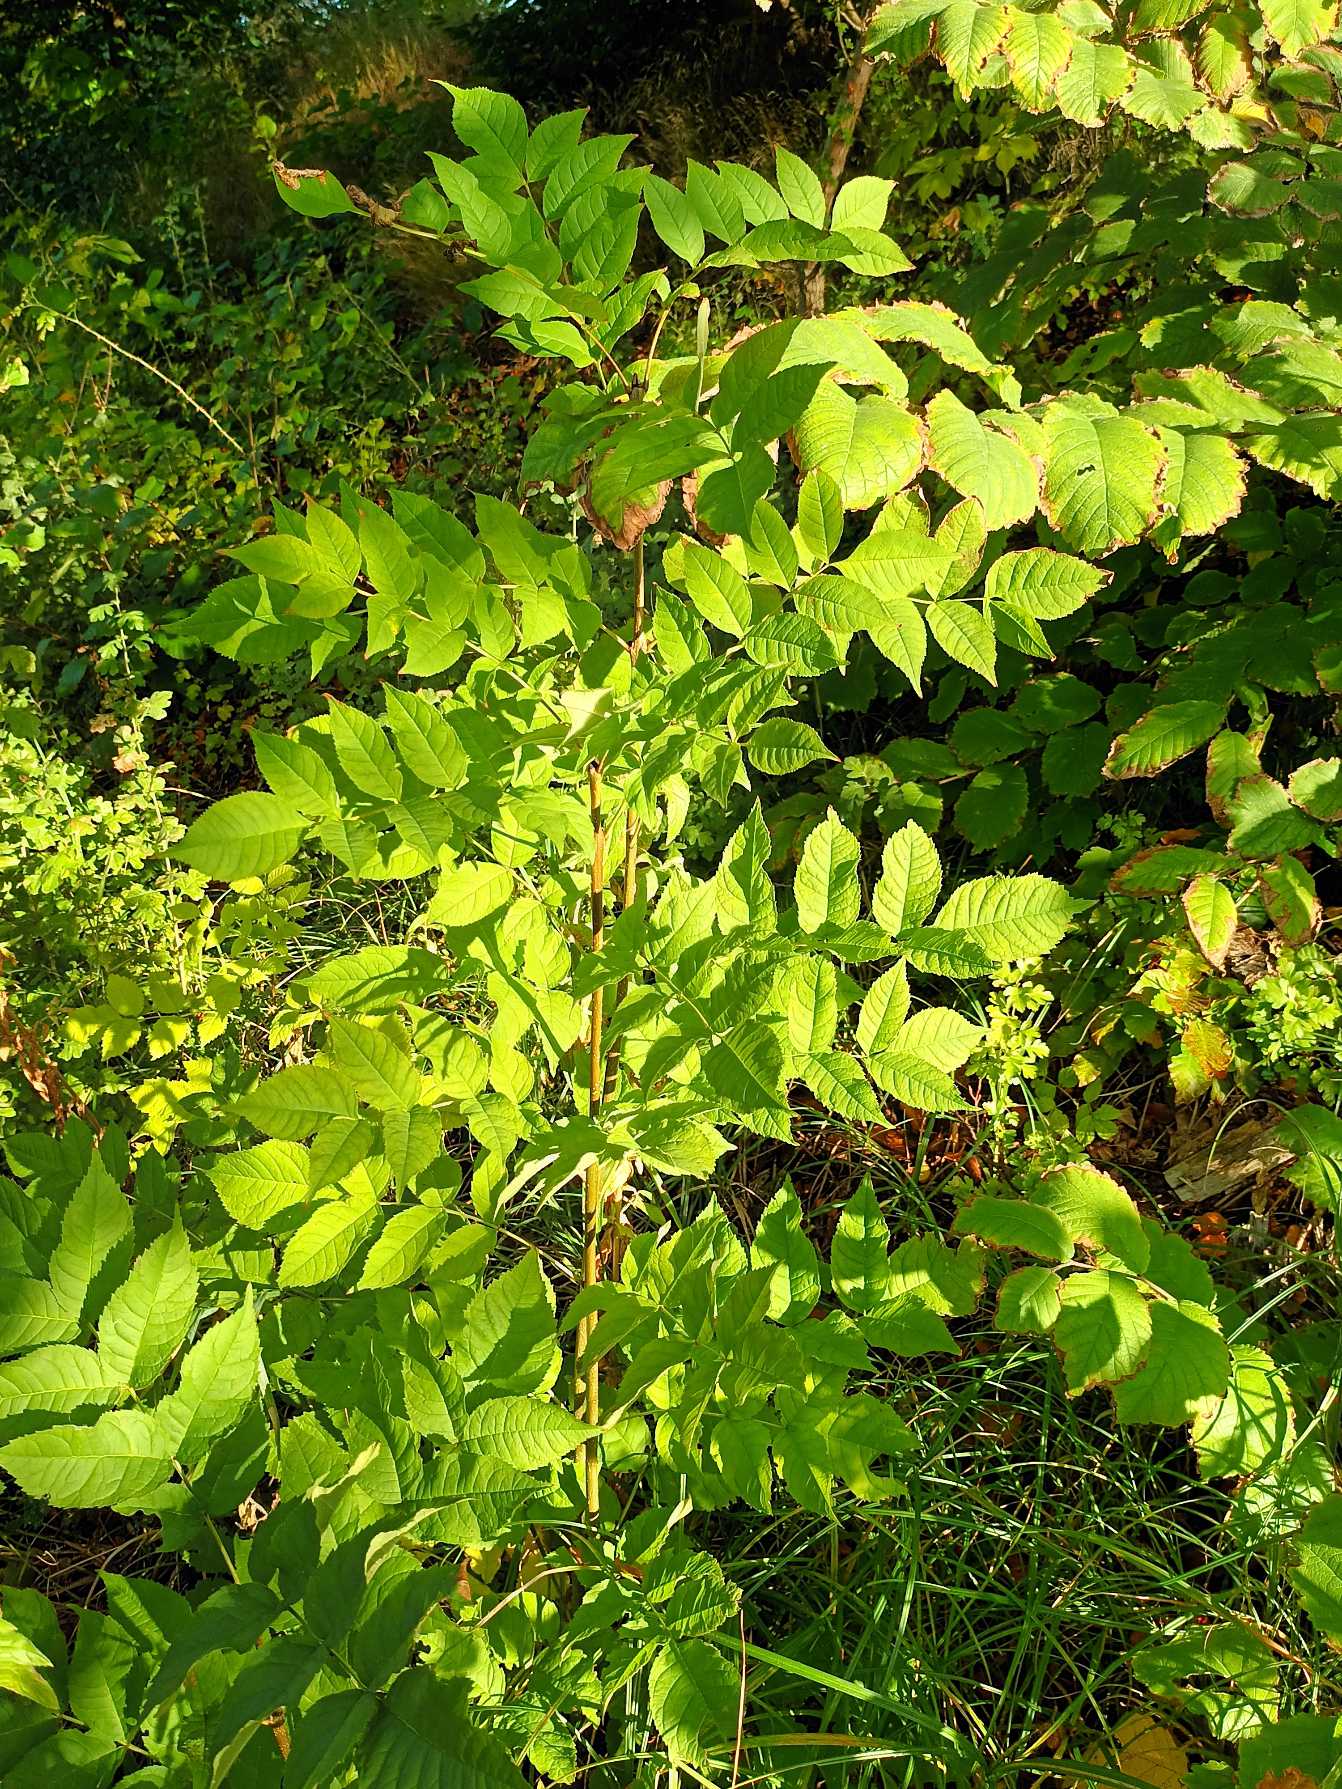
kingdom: Plantae
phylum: Tracheophyta
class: Magnoliopsida
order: Lamiales
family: Oleaceae
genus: Fraxinus
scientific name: Fraxinus excelsior
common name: Ask
